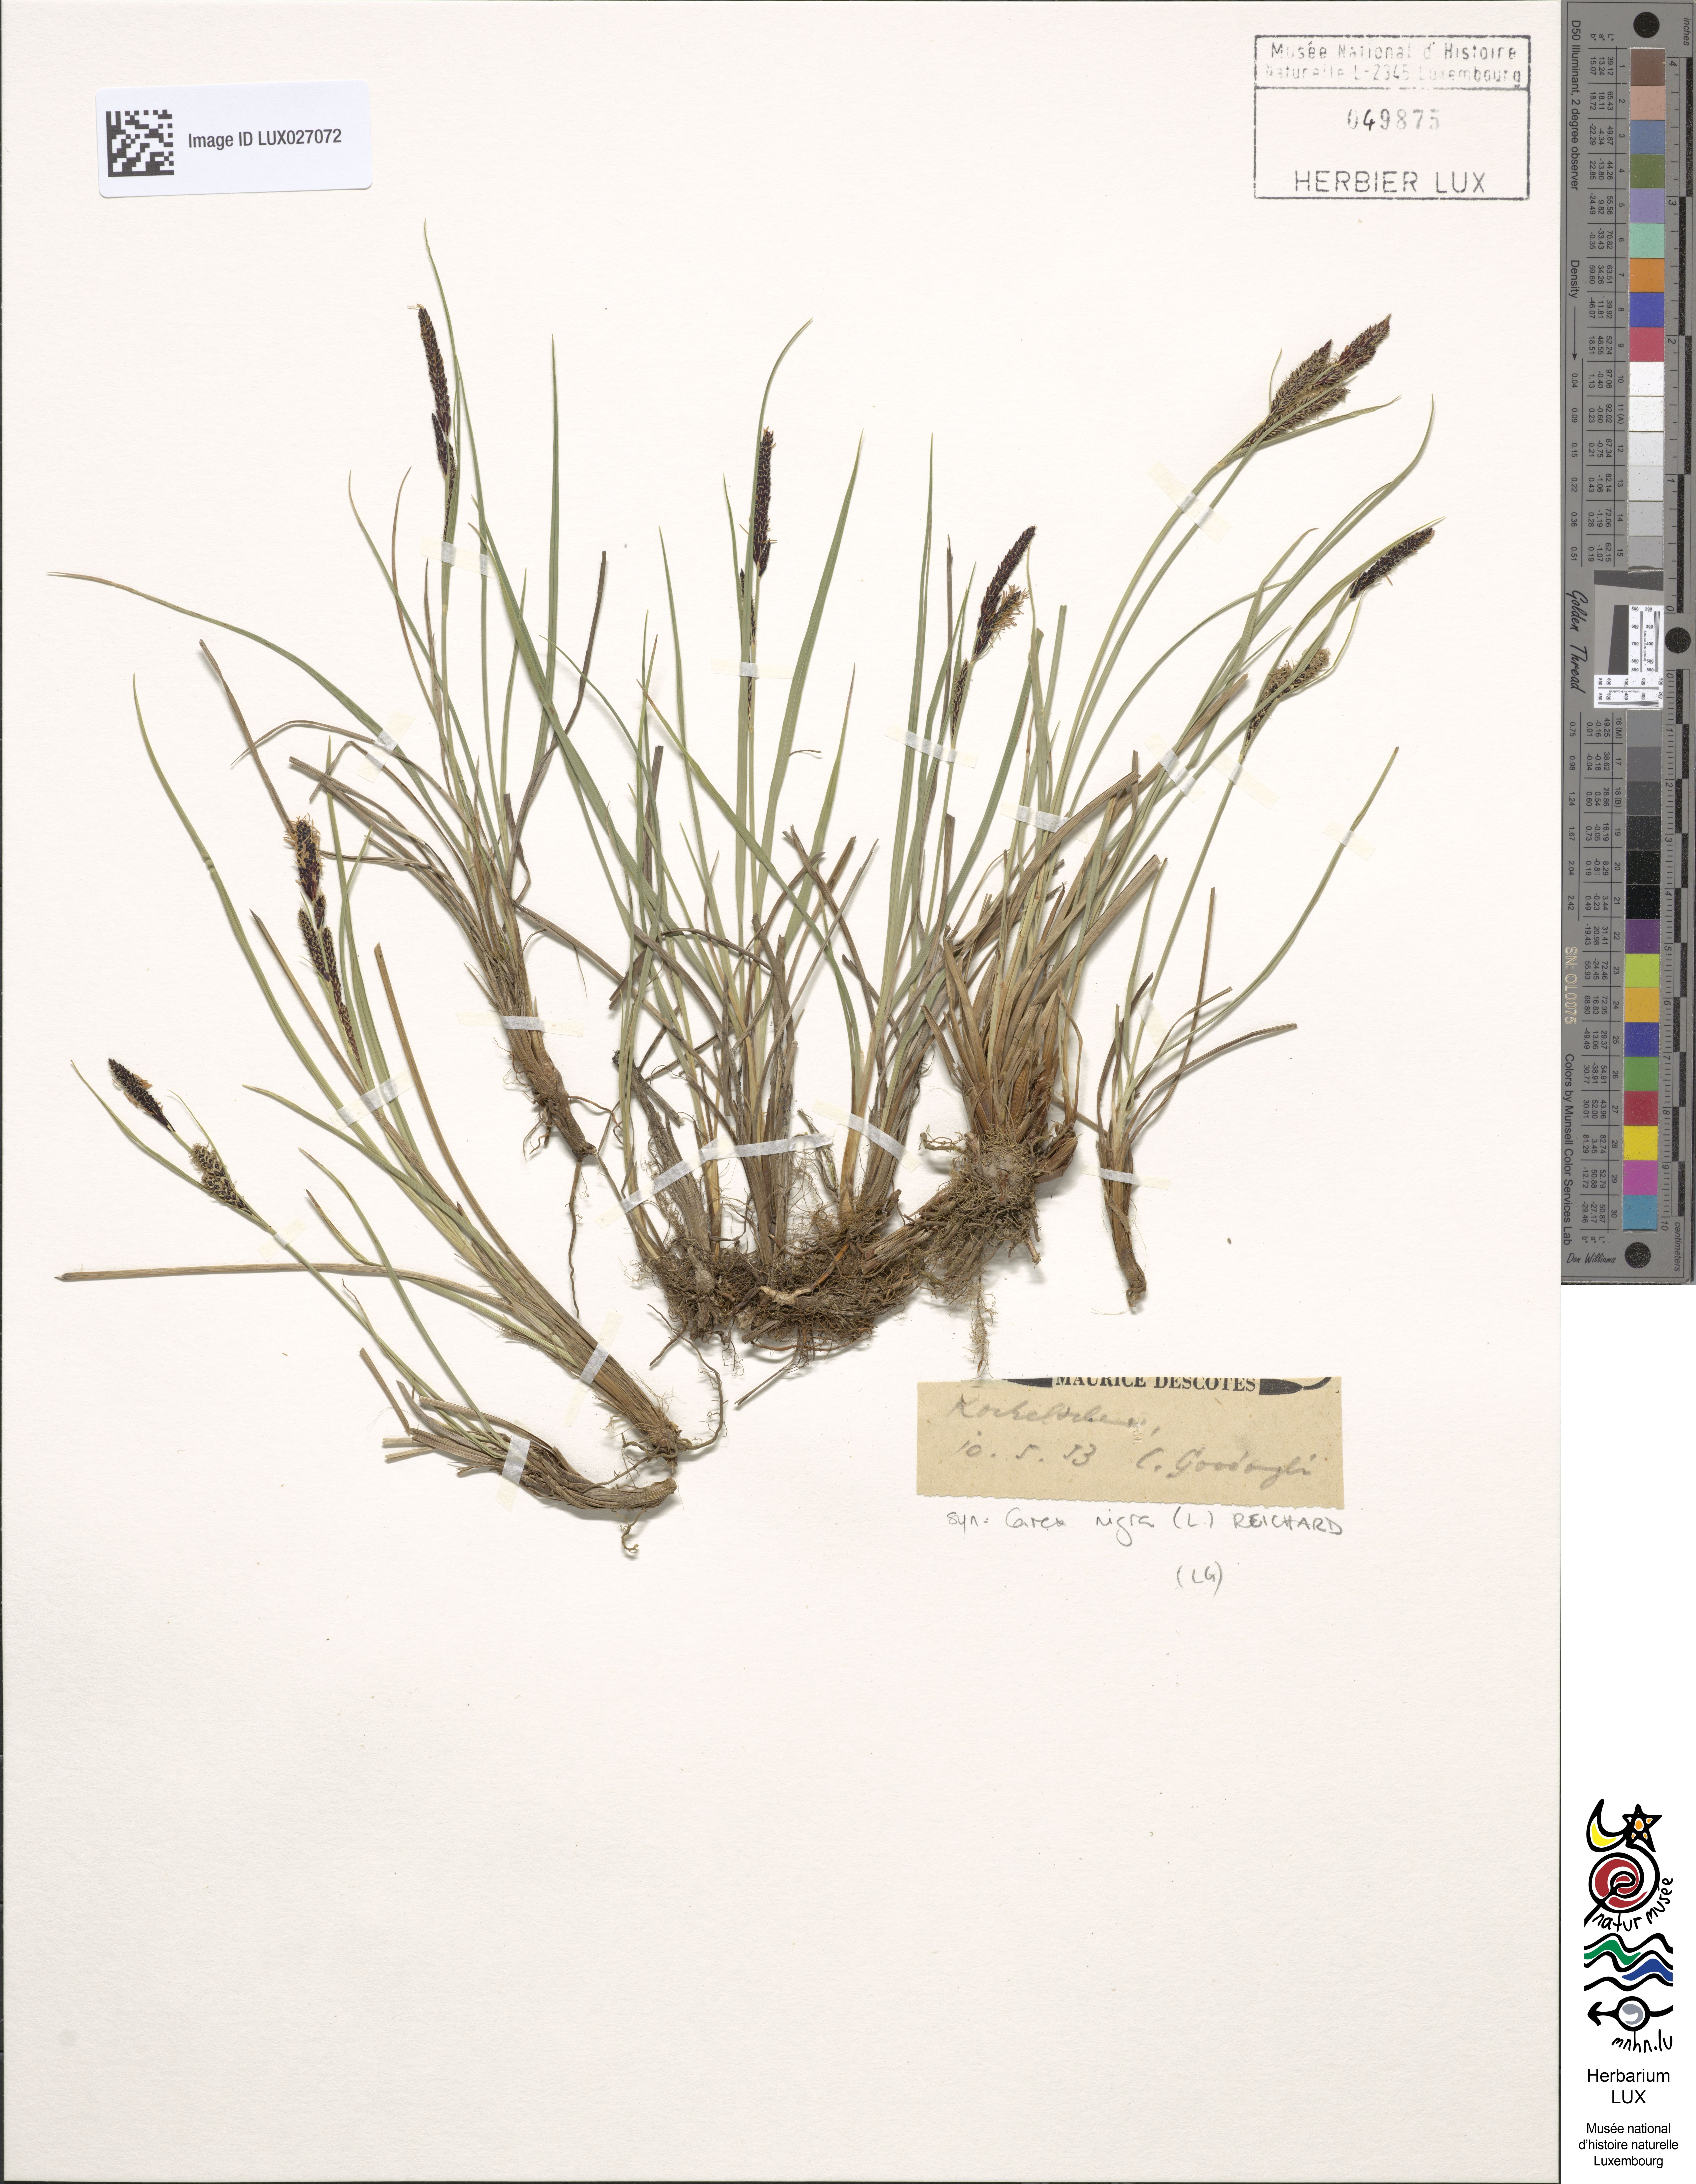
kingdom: Plantae
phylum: Tracheophyta
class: Liliopsida
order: Poales
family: Cyperaceae
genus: Carex
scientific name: Carex nigra
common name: Common sedge
